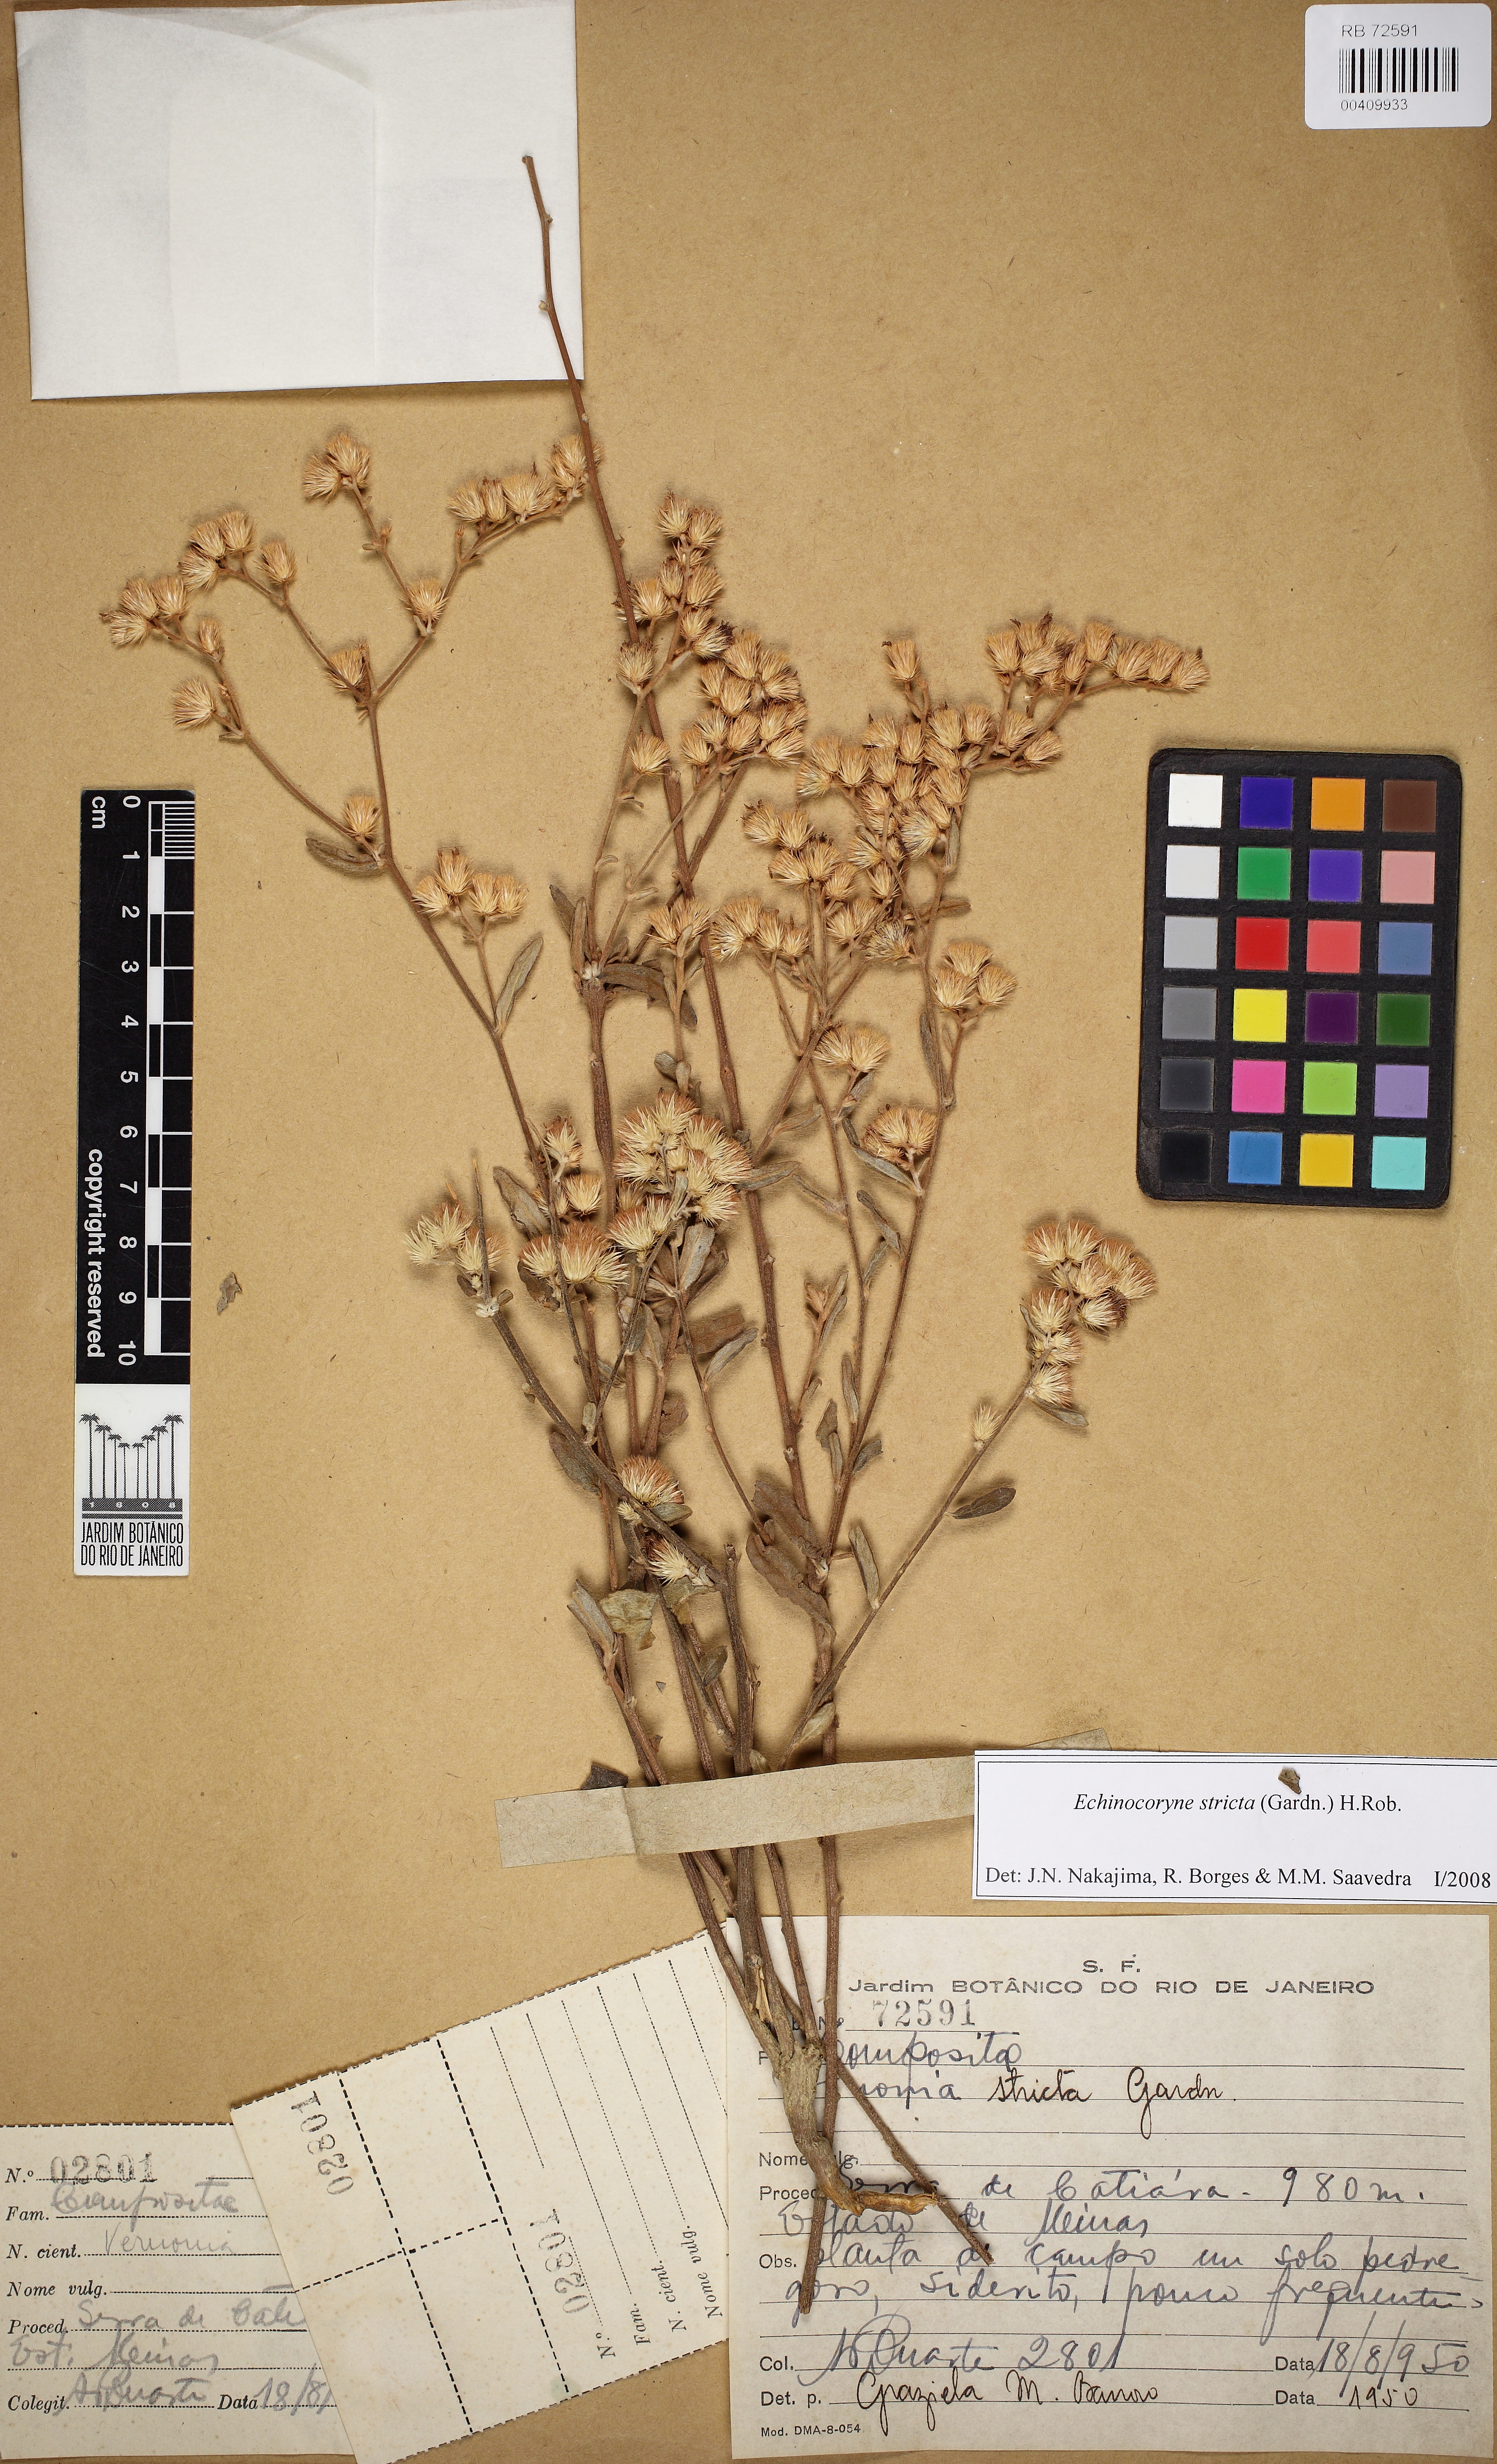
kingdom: Plantae
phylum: Tracheophyta
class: Magnoliopsida
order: Asterales
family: Asteraceae
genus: Echinocoryne
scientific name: Echinocoryne stricta
